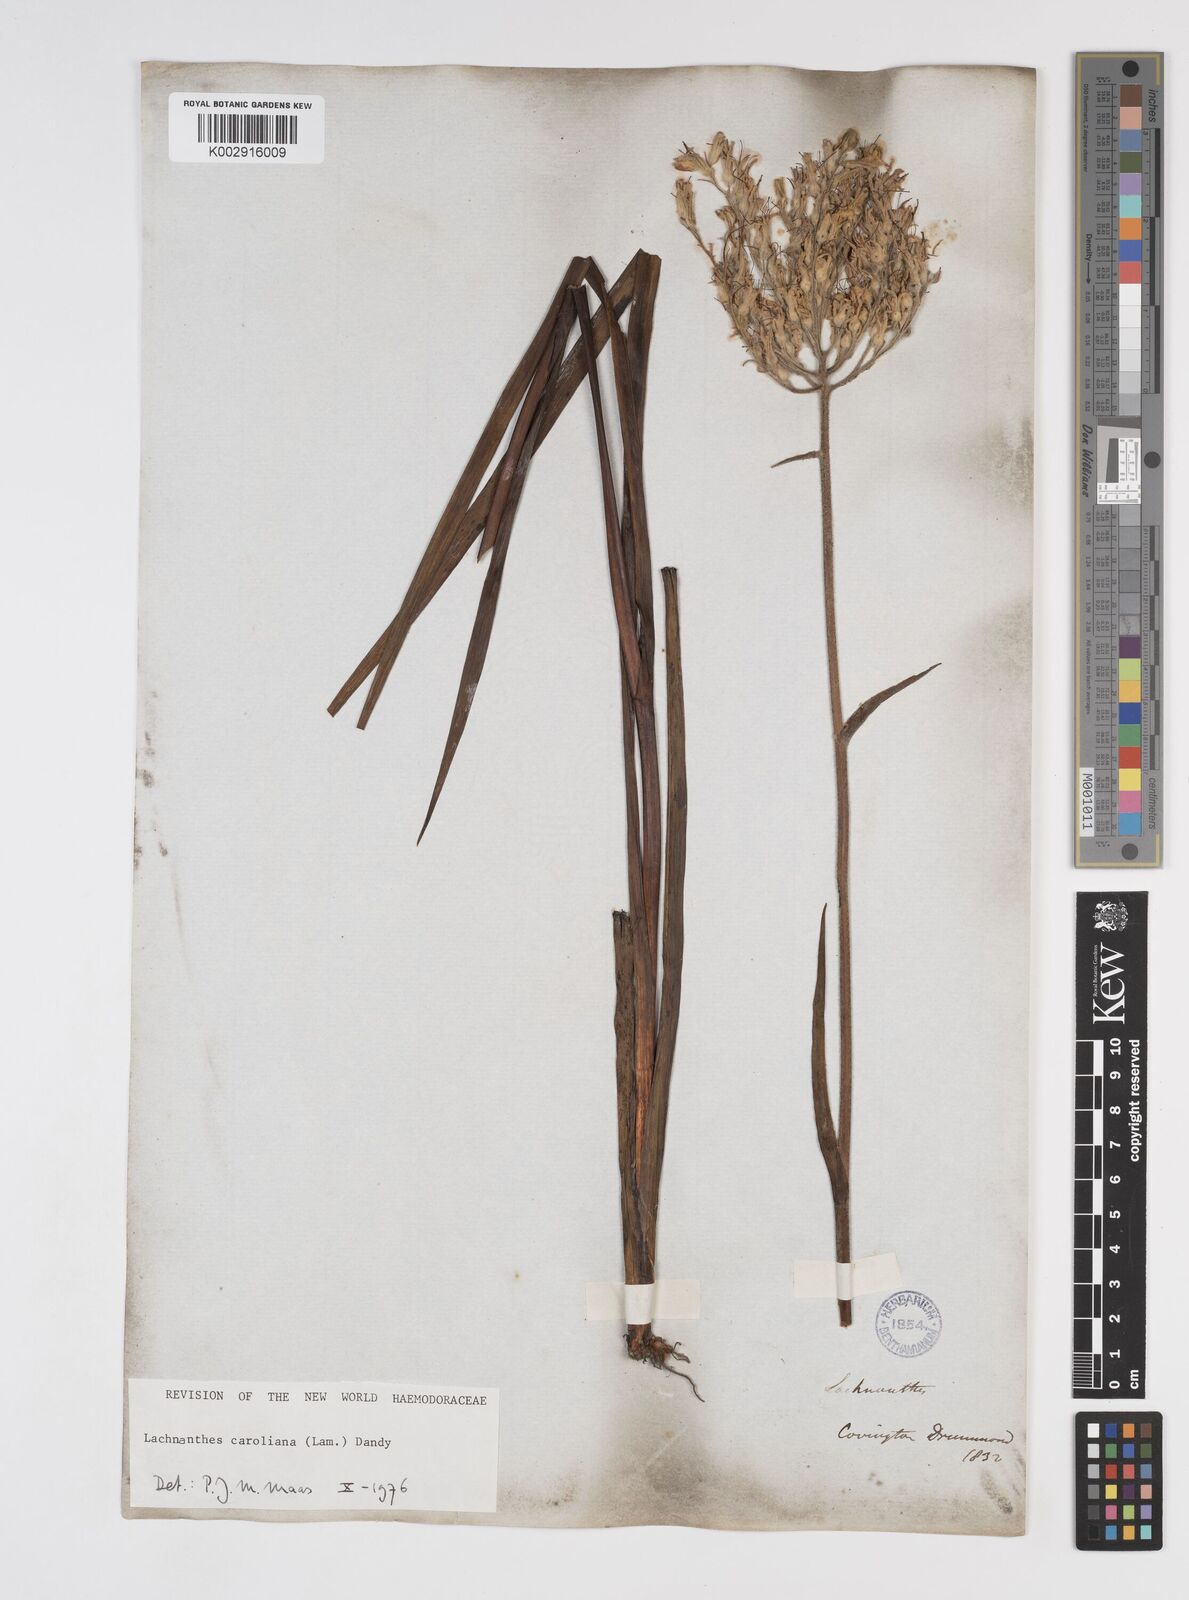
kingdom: Plantae
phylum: Tracheophyta
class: Liliopsida
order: Commelinales
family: Haemodoraceae
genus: Lachnanthes
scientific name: Lachnanthes caroliniana
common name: Carolina redroot
